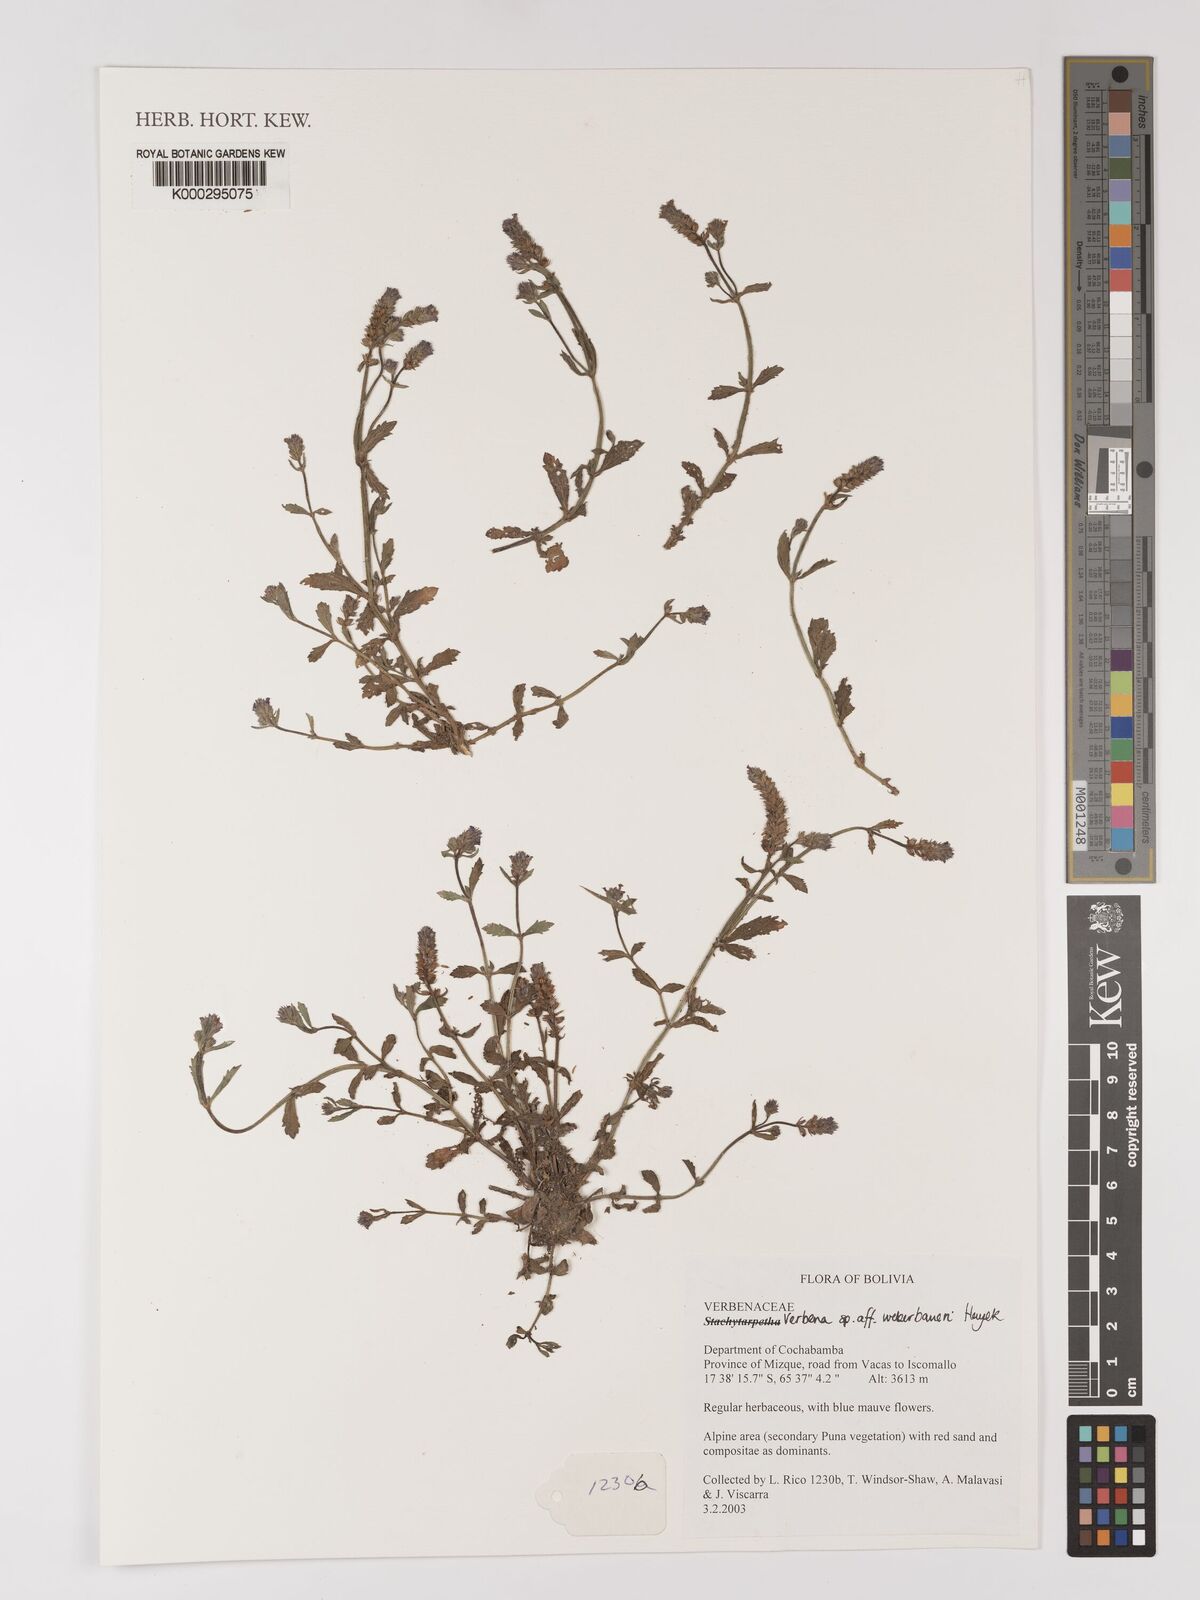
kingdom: Plantae
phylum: Tracheophyta
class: Magnoliopsida
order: Lamiales
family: Verbenaceae
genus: Verbena
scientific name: Verbena glabrata
